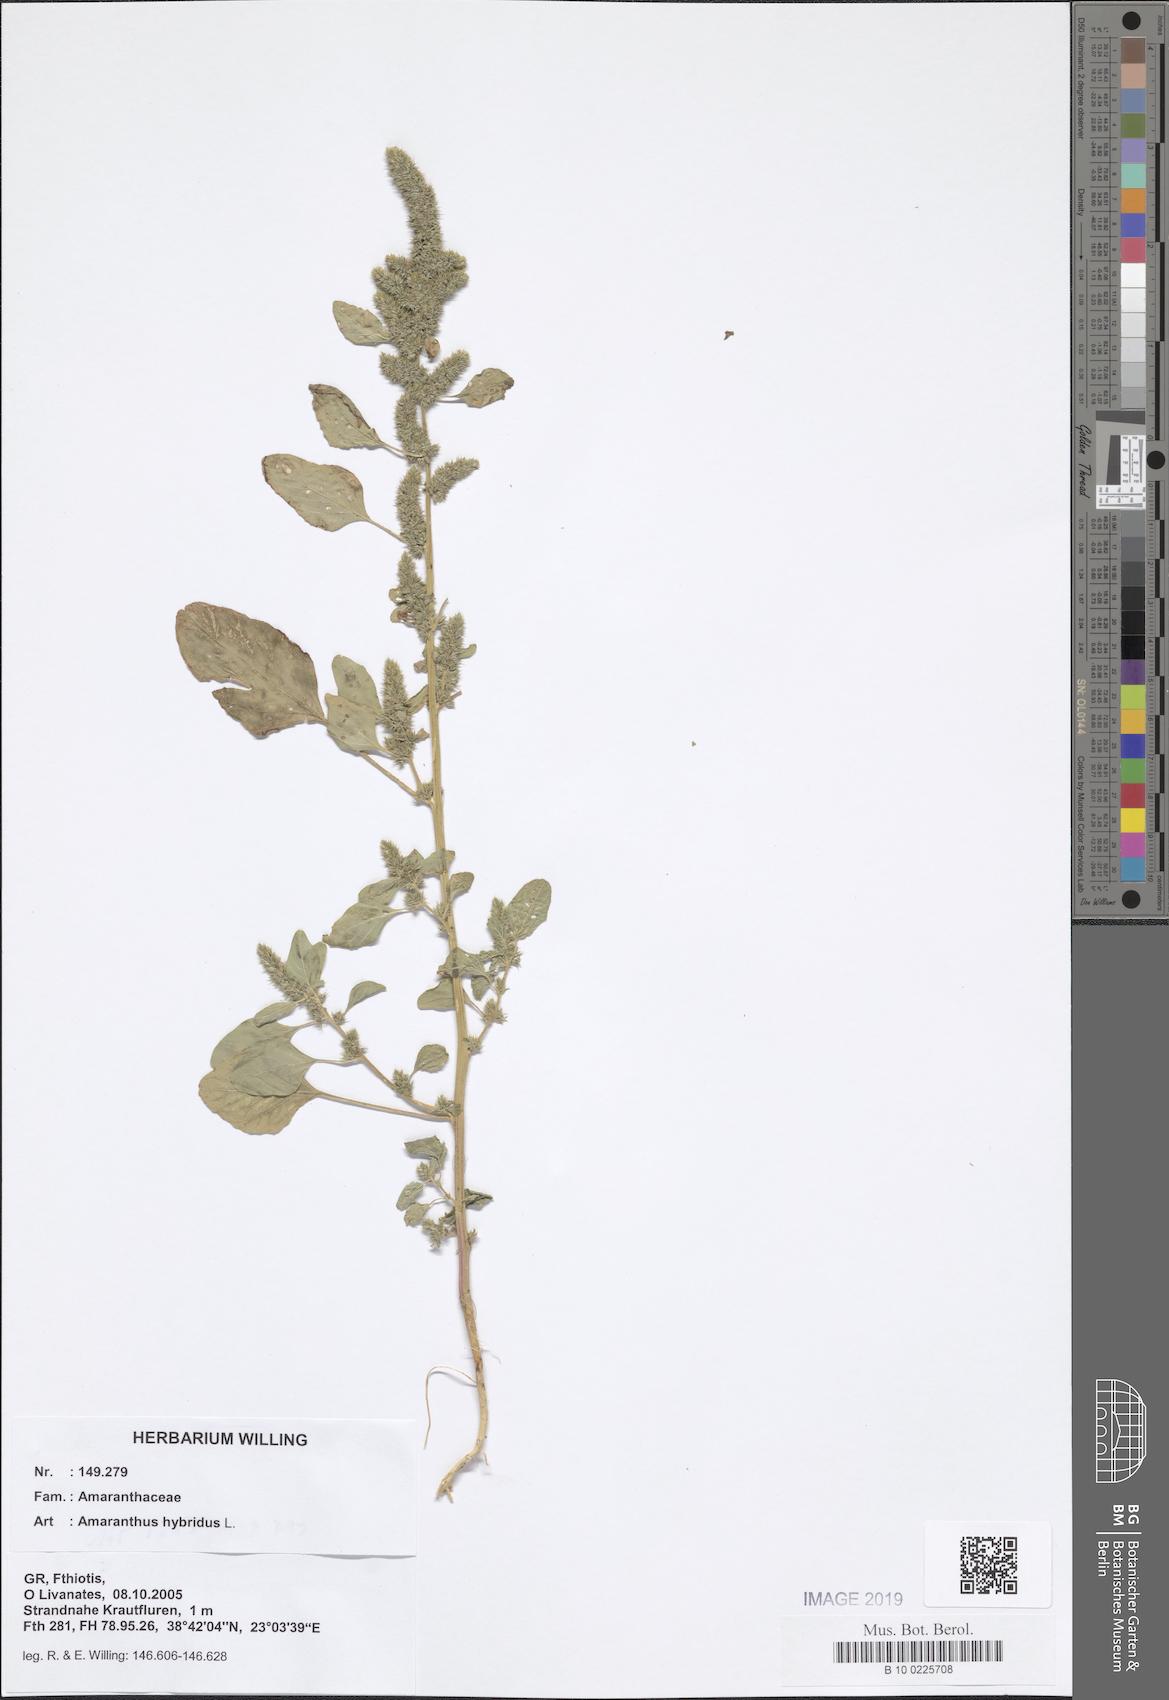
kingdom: Plantae
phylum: Tracheophyta
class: Magnoliopsida
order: Caryophyllales
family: Amaranthaceae
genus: Amaranthus
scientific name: Amaranthus hybridus
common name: Green amaranth
